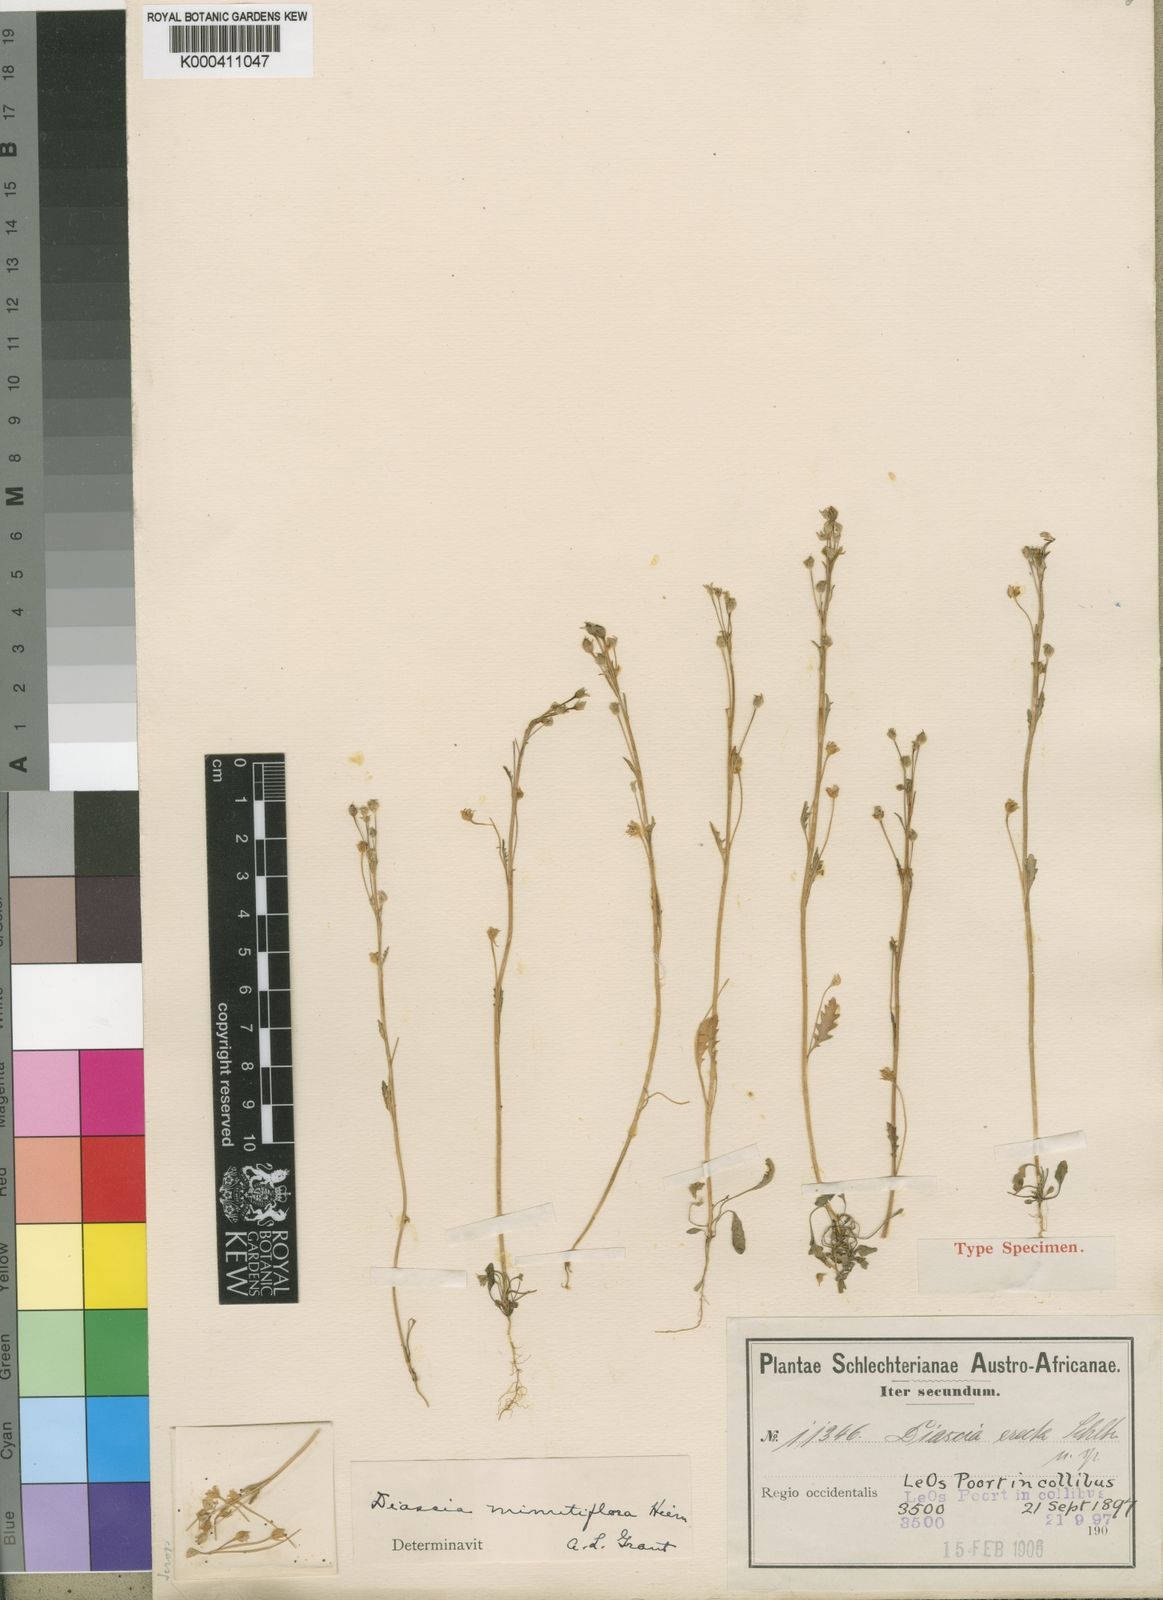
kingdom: Plantae
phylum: Tracheophyta
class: Magnoliopsida
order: Lamiales
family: Scrophulariaceae
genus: Diascia
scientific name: Diascia minutiflora
